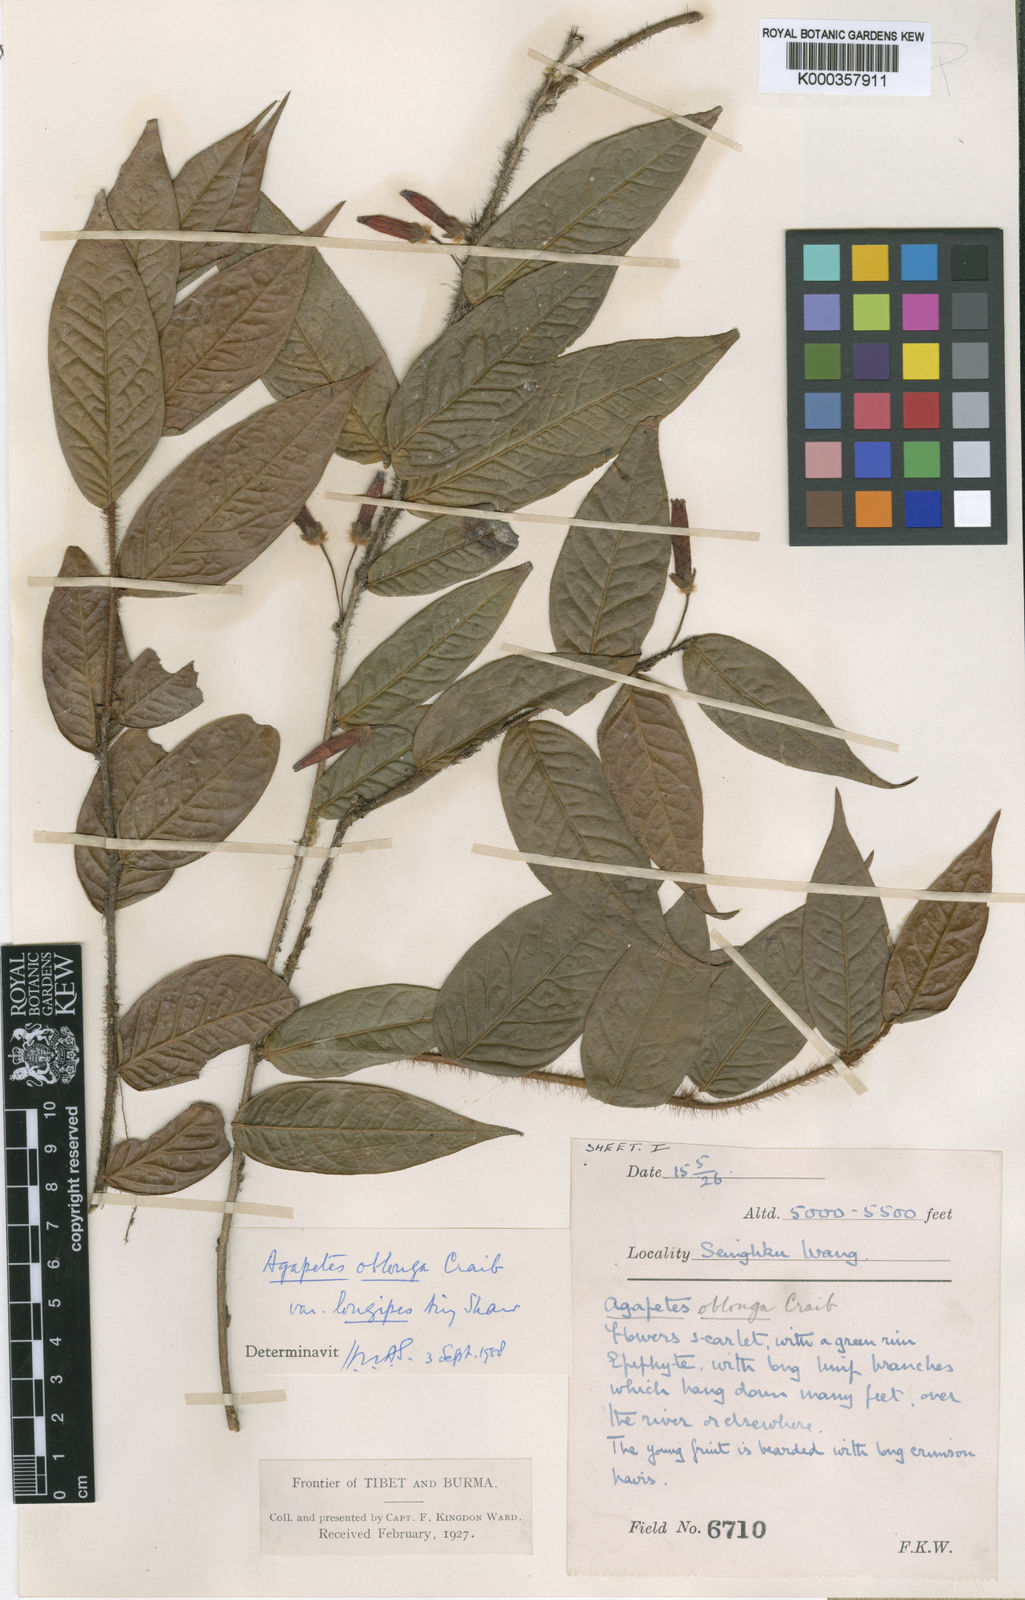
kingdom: Plantae
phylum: Tracheophyta
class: Magnoliopsida
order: Ericales
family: Ericaceae
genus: Agapetes
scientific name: Agapetes oblonga
